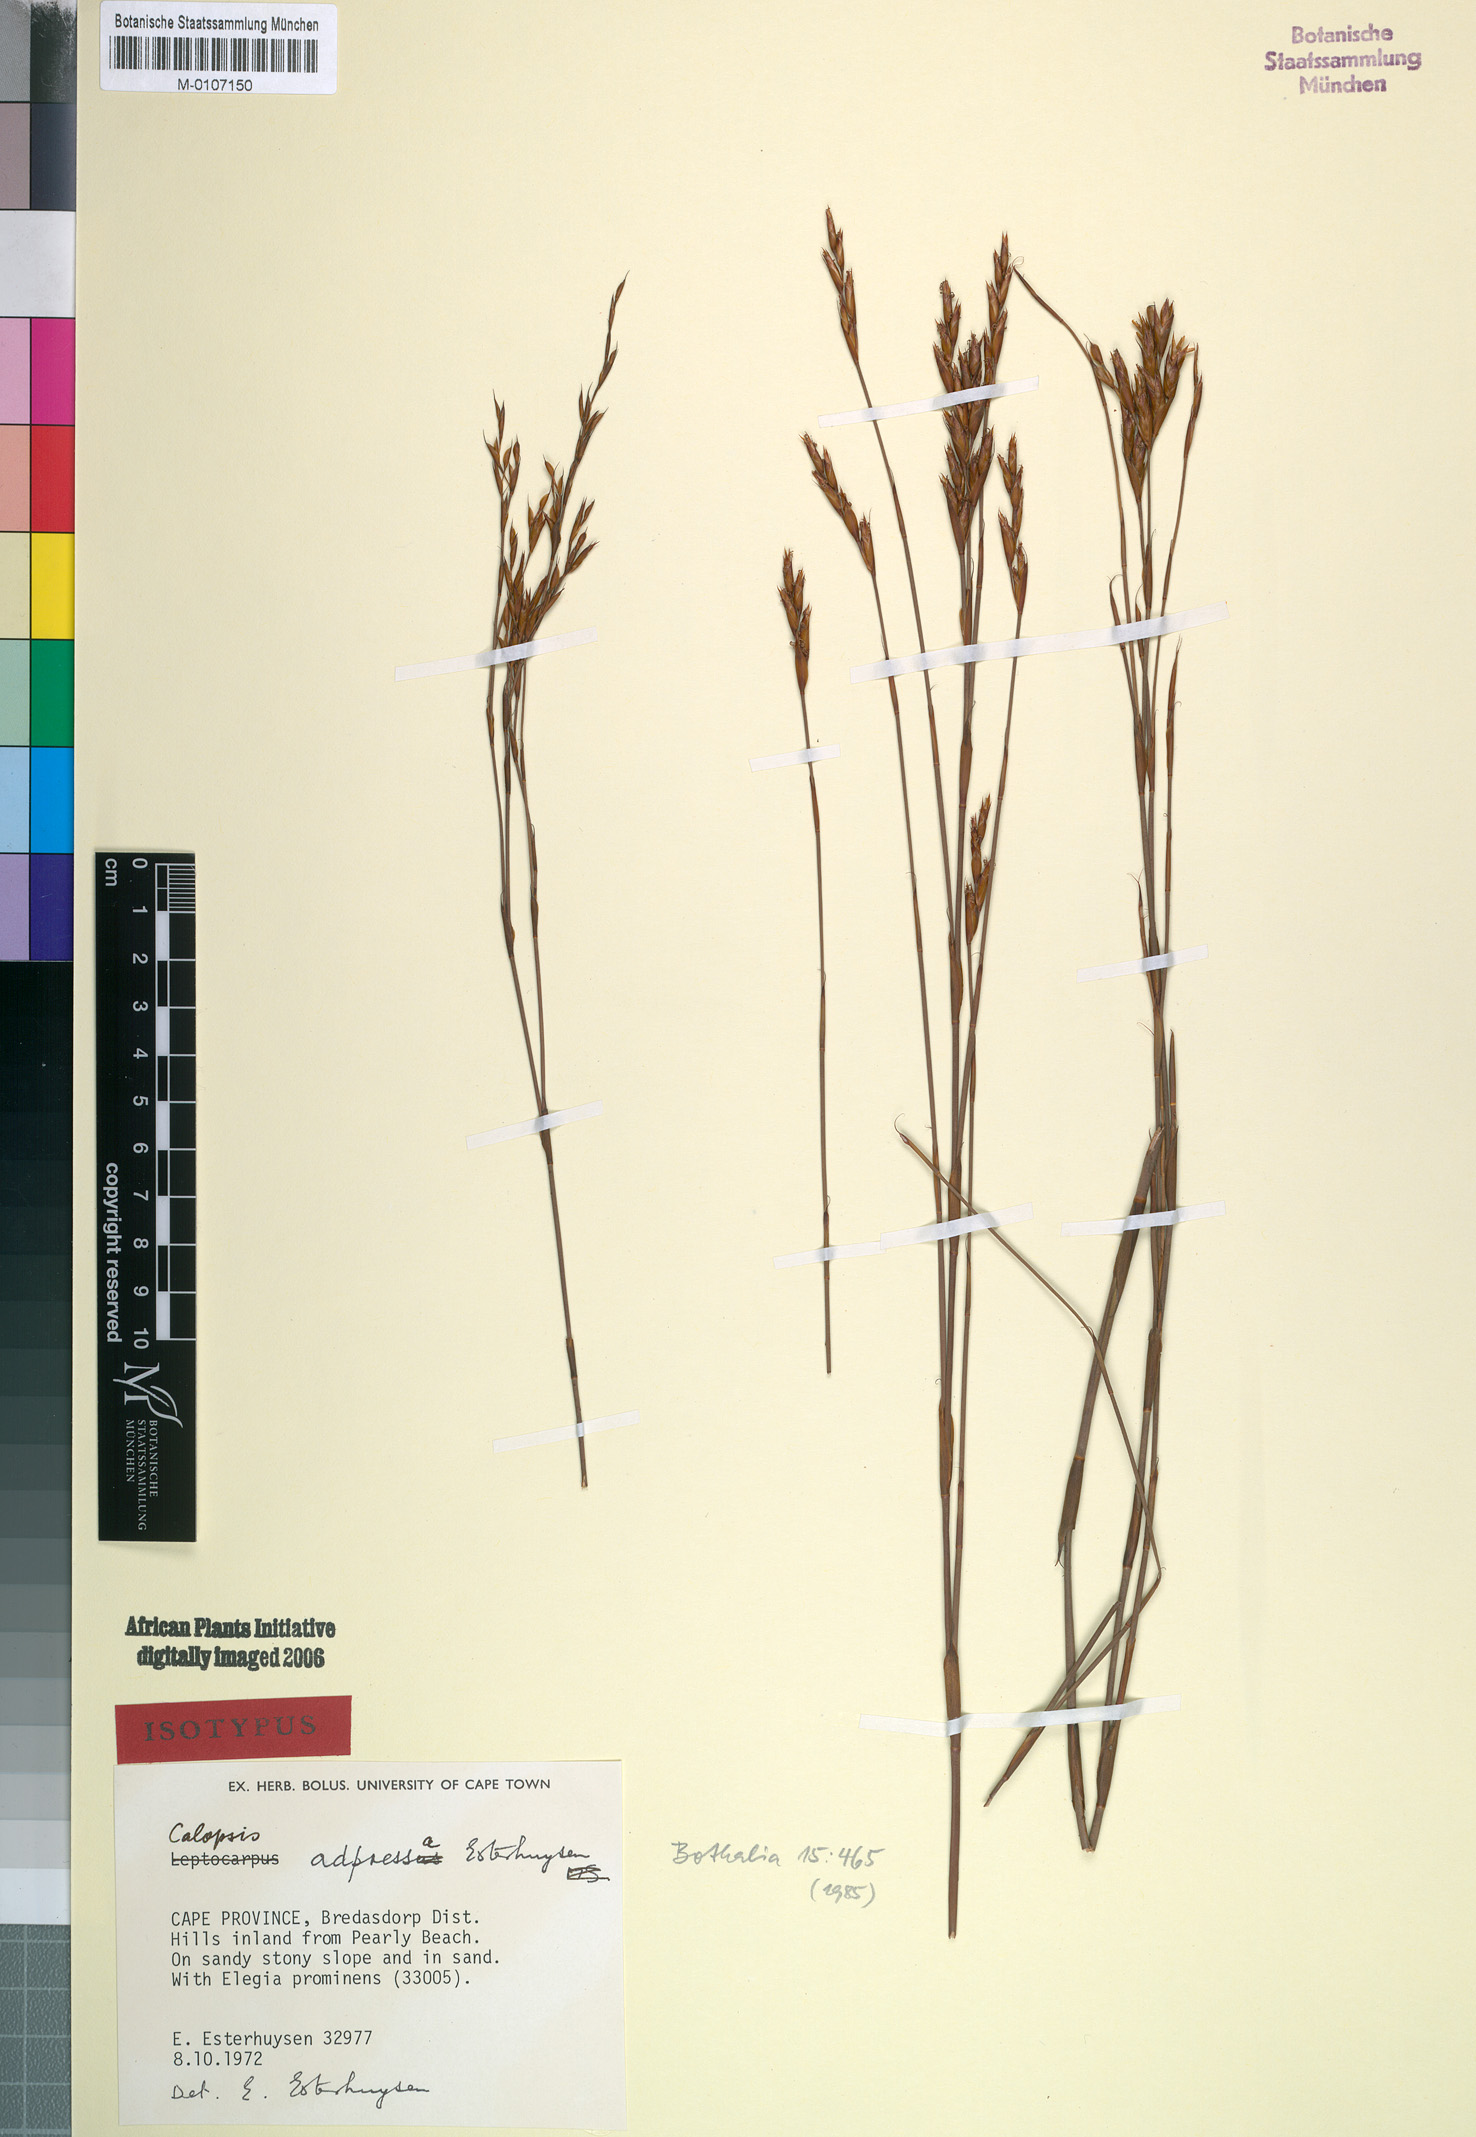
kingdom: Plantae
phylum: Tracheophyta
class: Liliopsida
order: Poales
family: Restionaceae
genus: Restio
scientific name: Restio adpressus
